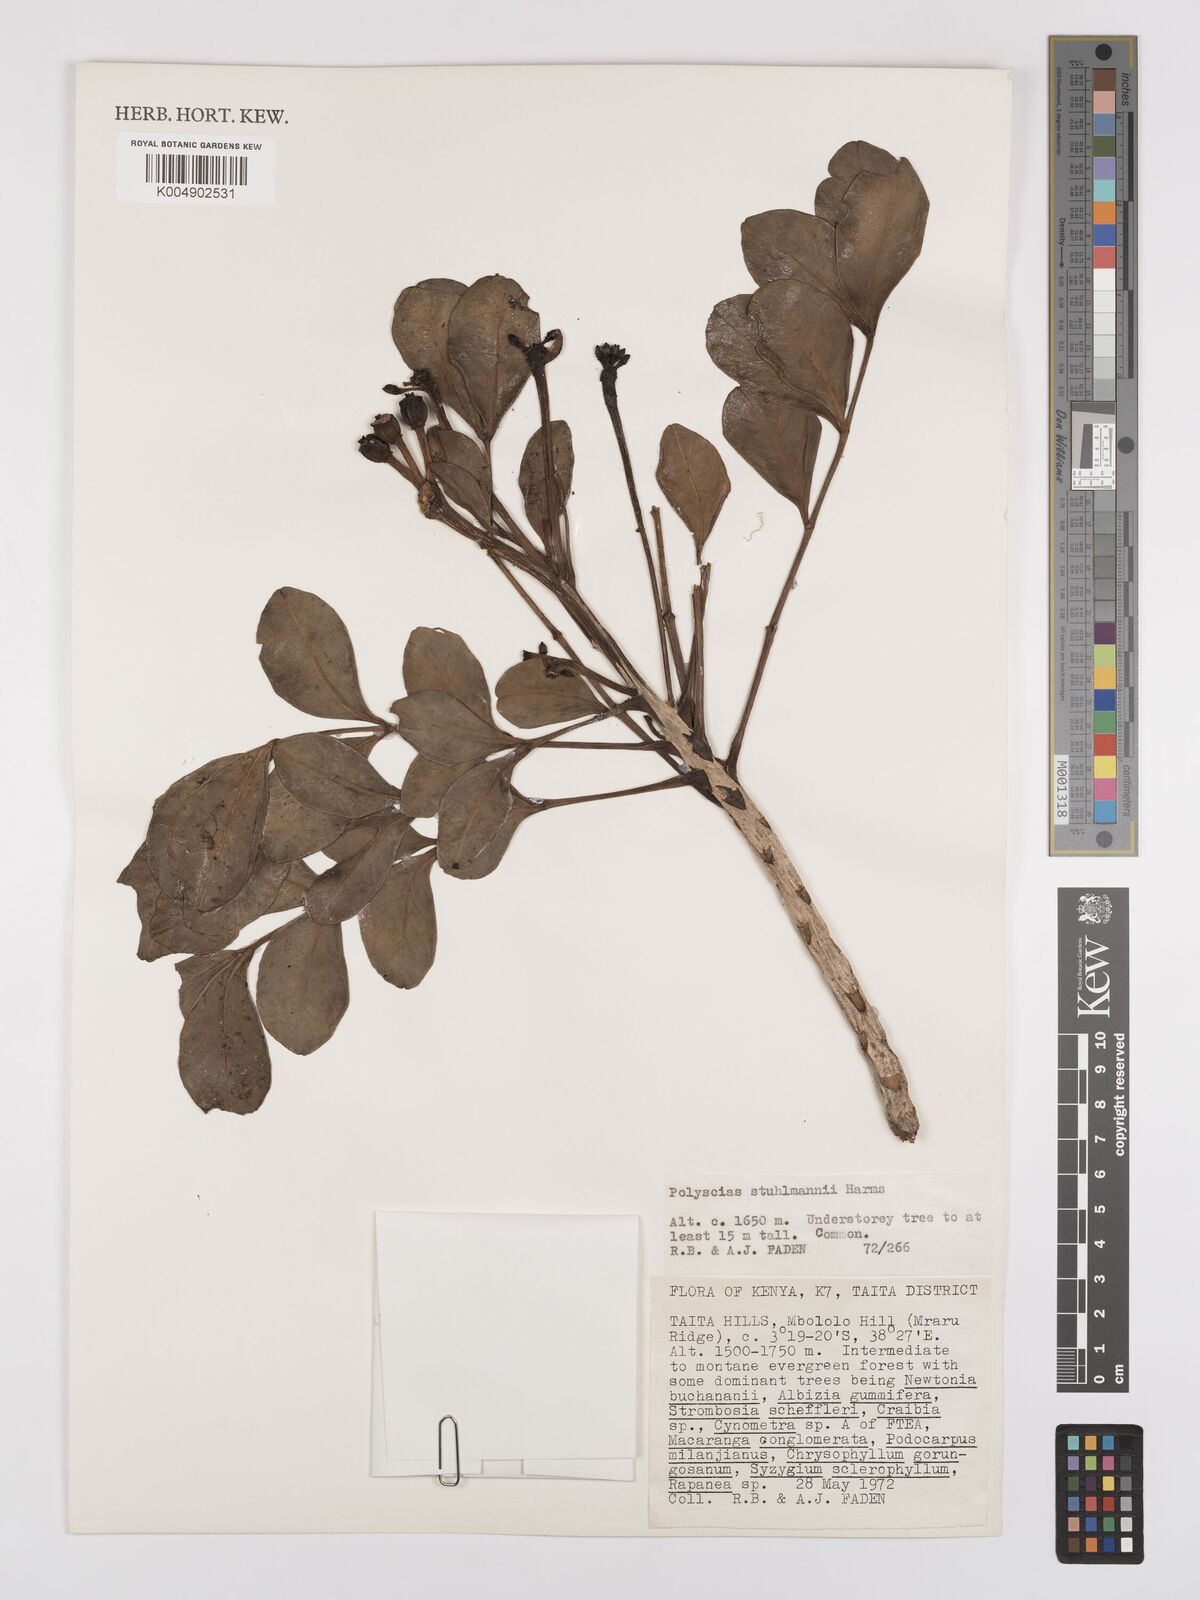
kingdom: Plantae
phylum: Tracheophyta
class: Magnoliopsida
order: Apiales
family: Araliaceae
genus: Polyscias
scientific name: Polyscias stuhlmannii
